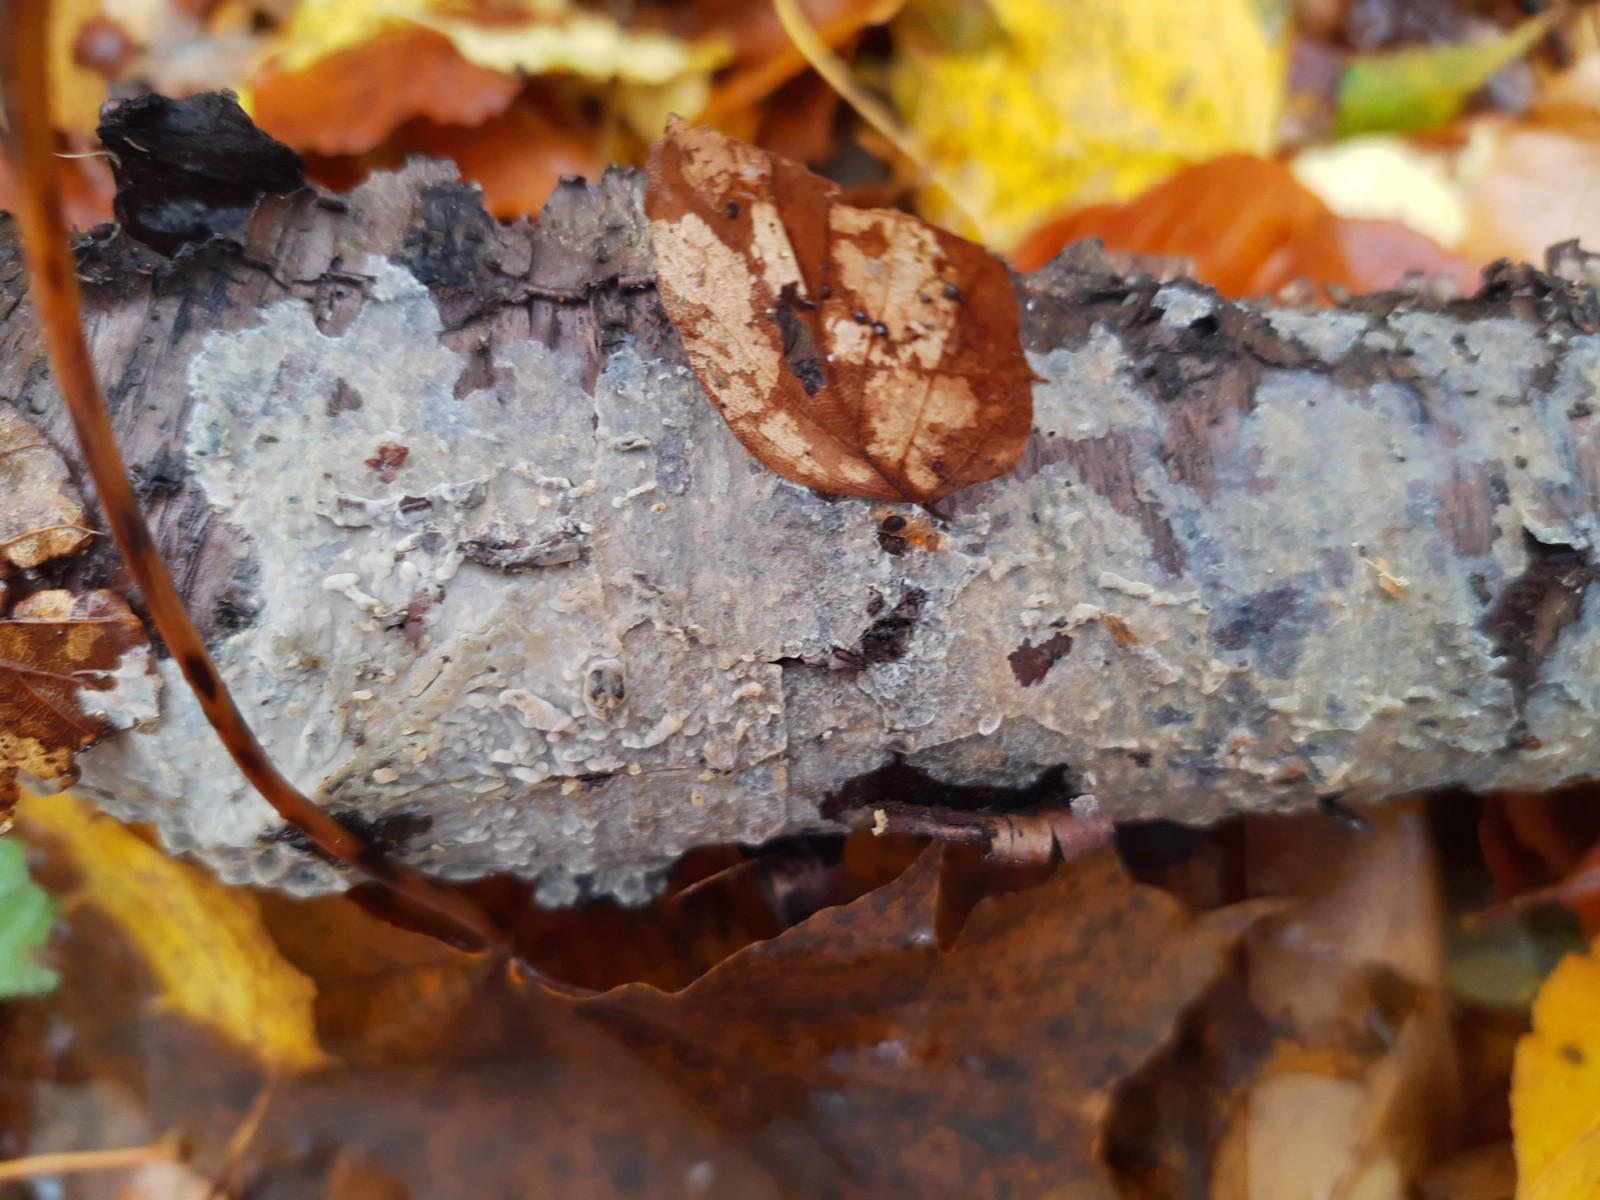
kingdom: Fungi
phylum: Basidiomycota
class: Agaricomycetes
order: Agaricales
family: Radulomycetaceae
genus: Aphanobasidium
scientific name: Aphanobasidium pseudotsugae
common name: tynd naftalinskind
